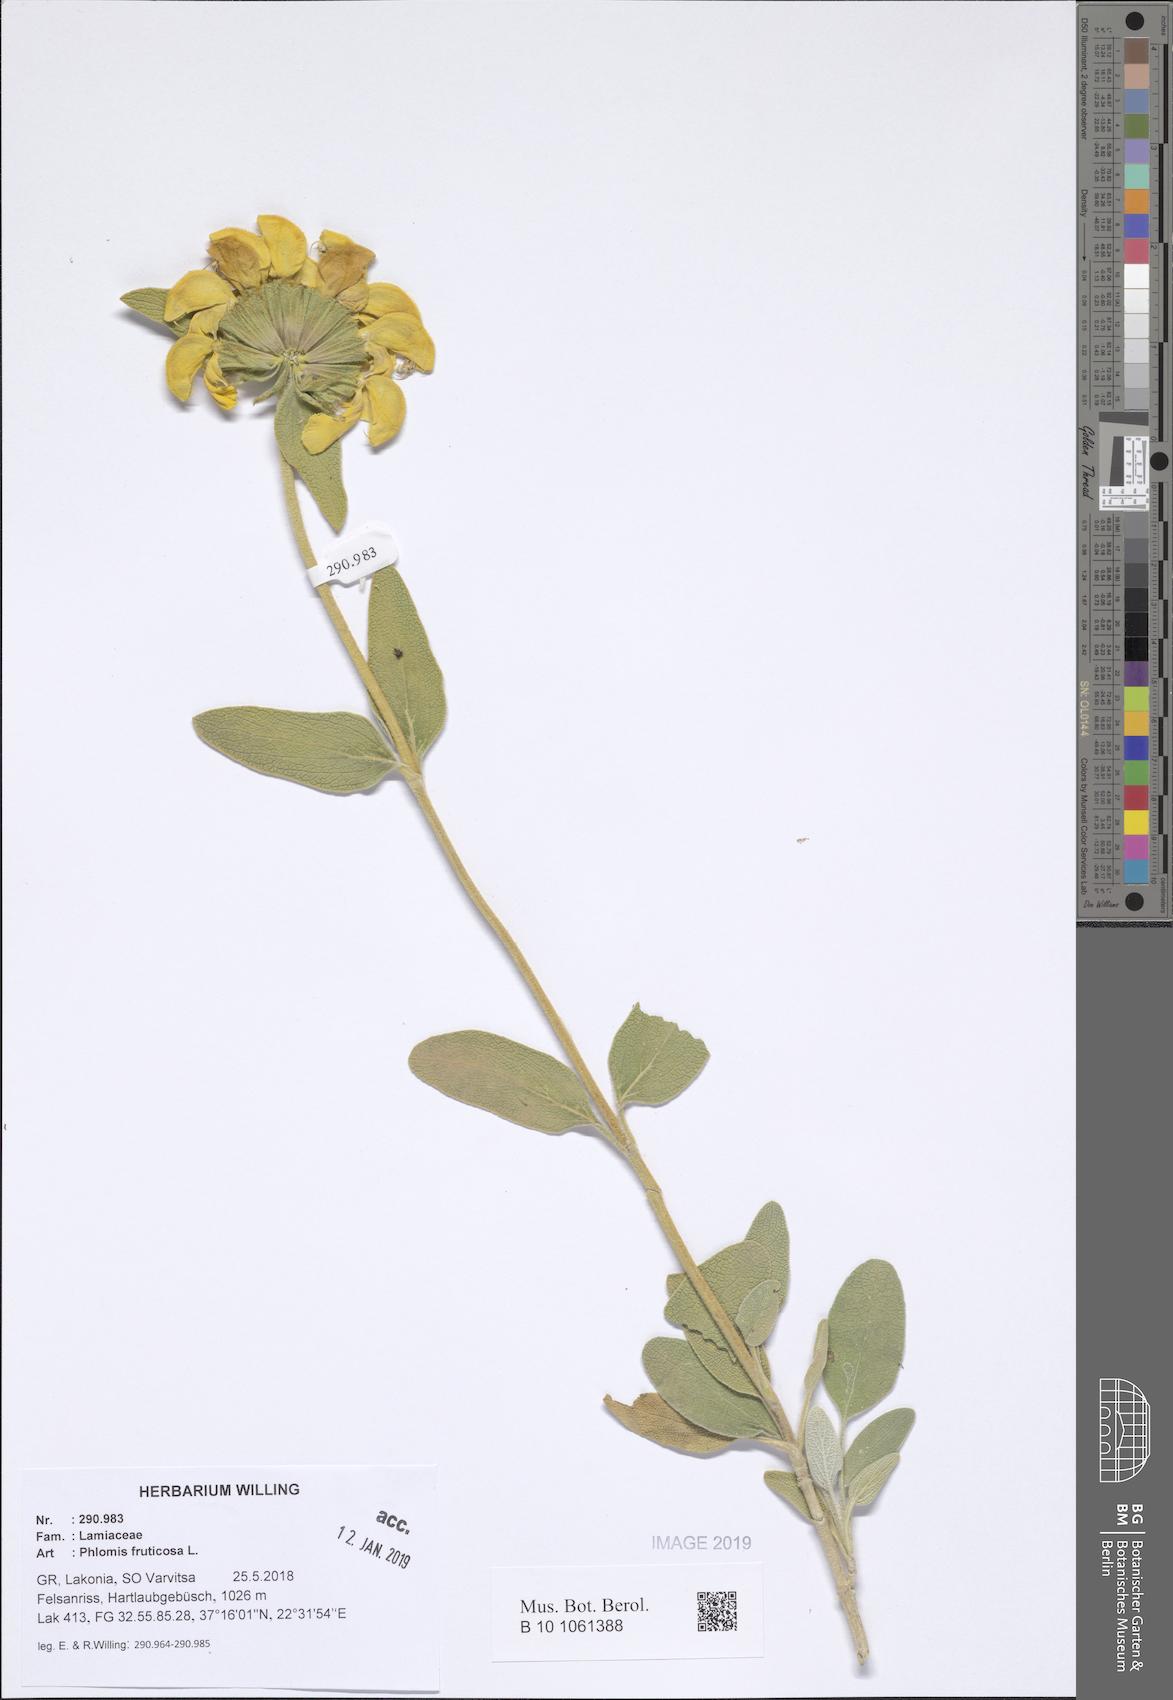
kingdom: Plantae
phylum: Tracheophyta
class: Magnoliopsida
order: Lamiales
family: Lamiaceae
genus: Phlomis
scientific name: Phlomis fruticosa
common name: Jerusalem sage
